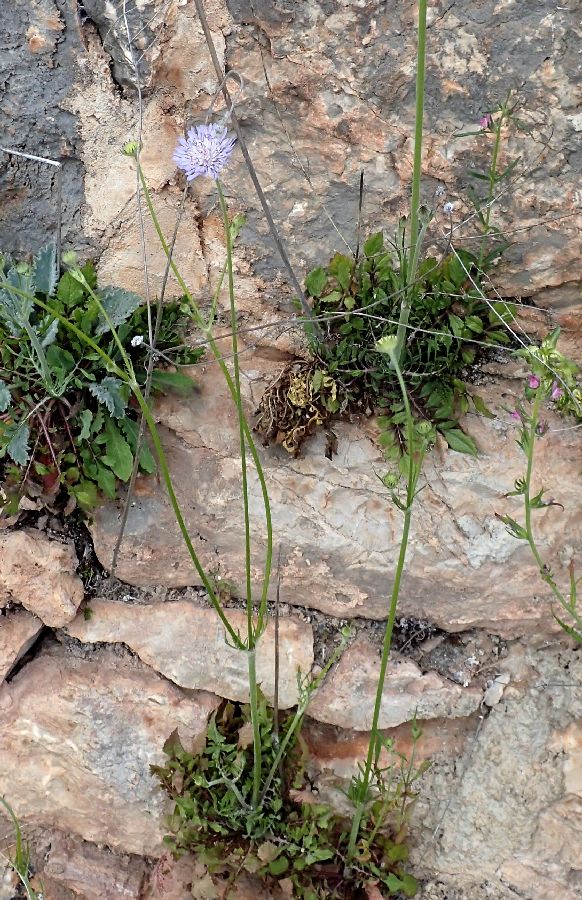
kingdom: Plantae
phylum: Tracheophyta
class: Magnoliopsida
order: Dipsacales
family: Caprifoliaceae
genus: Knautia
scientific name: Knautia integrifolia
